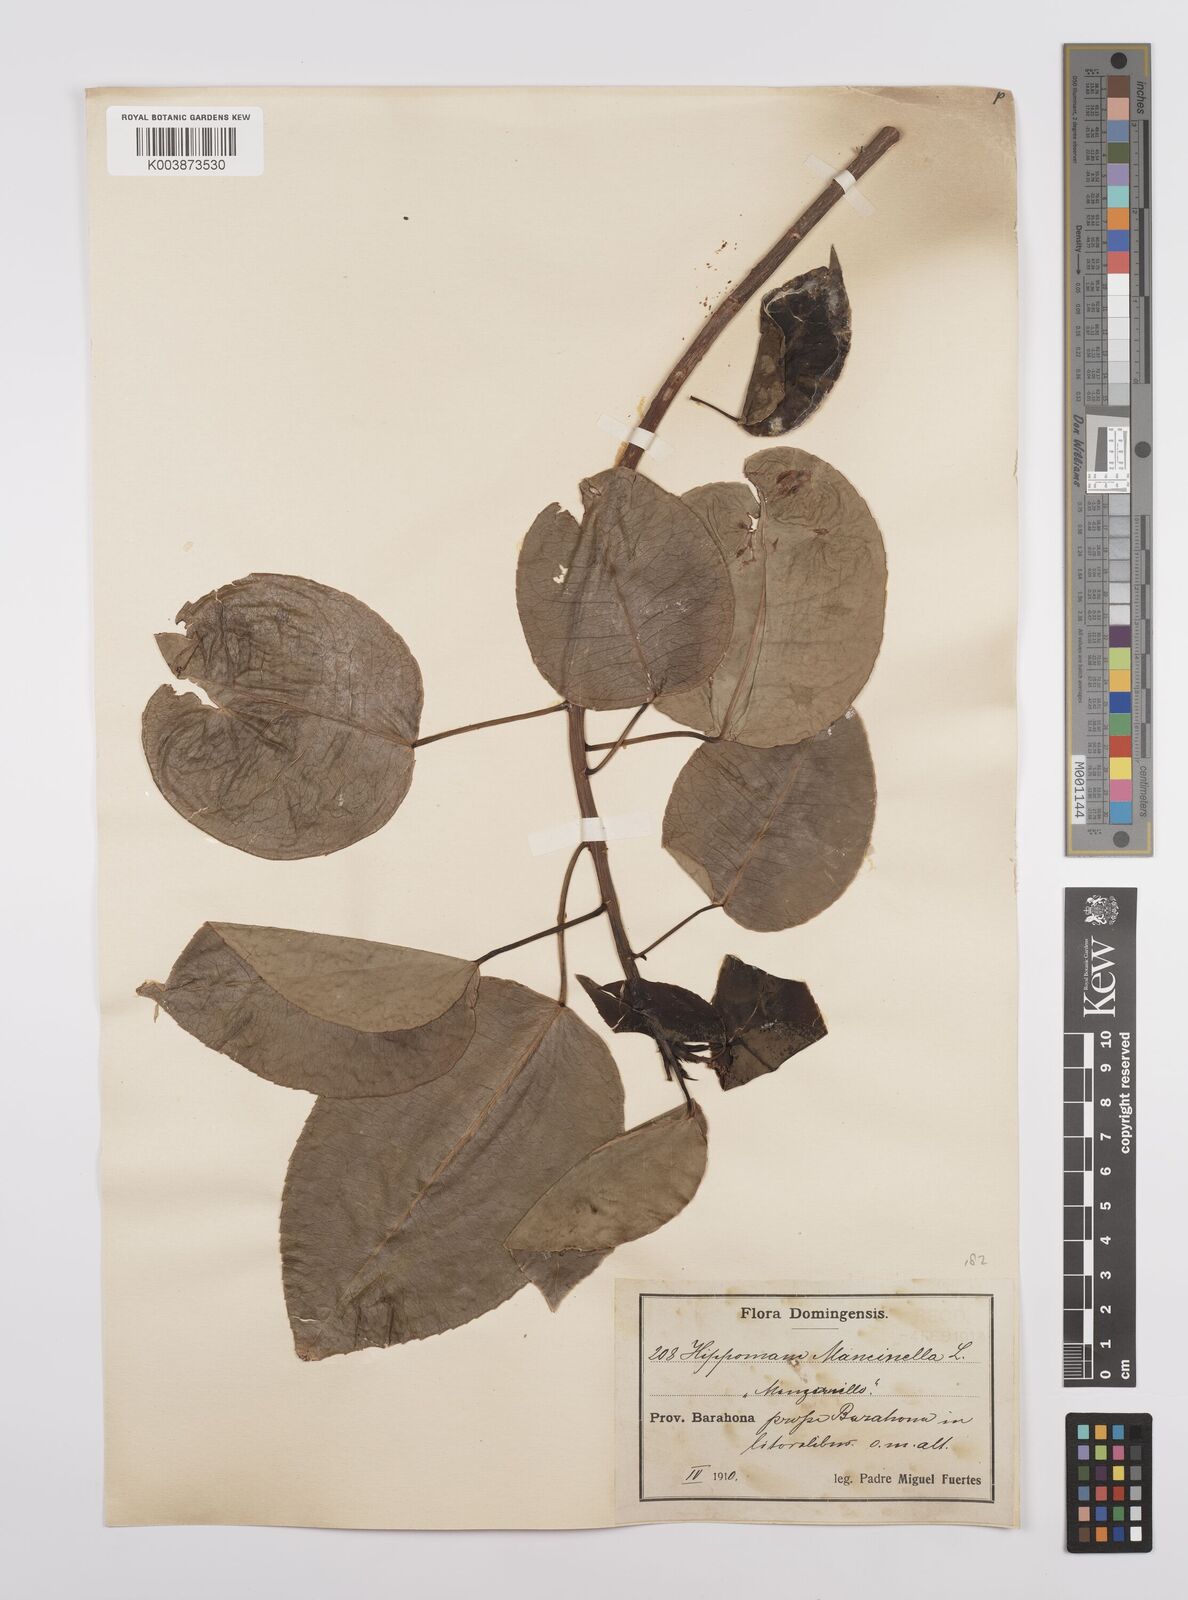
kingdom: Plantae
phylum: Tracheophyta
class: Magnoliopsida
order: Malpighiales
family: Euphorbiaceae
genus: Hippomane
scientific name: Hippomane mancinella
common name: Manchineel
